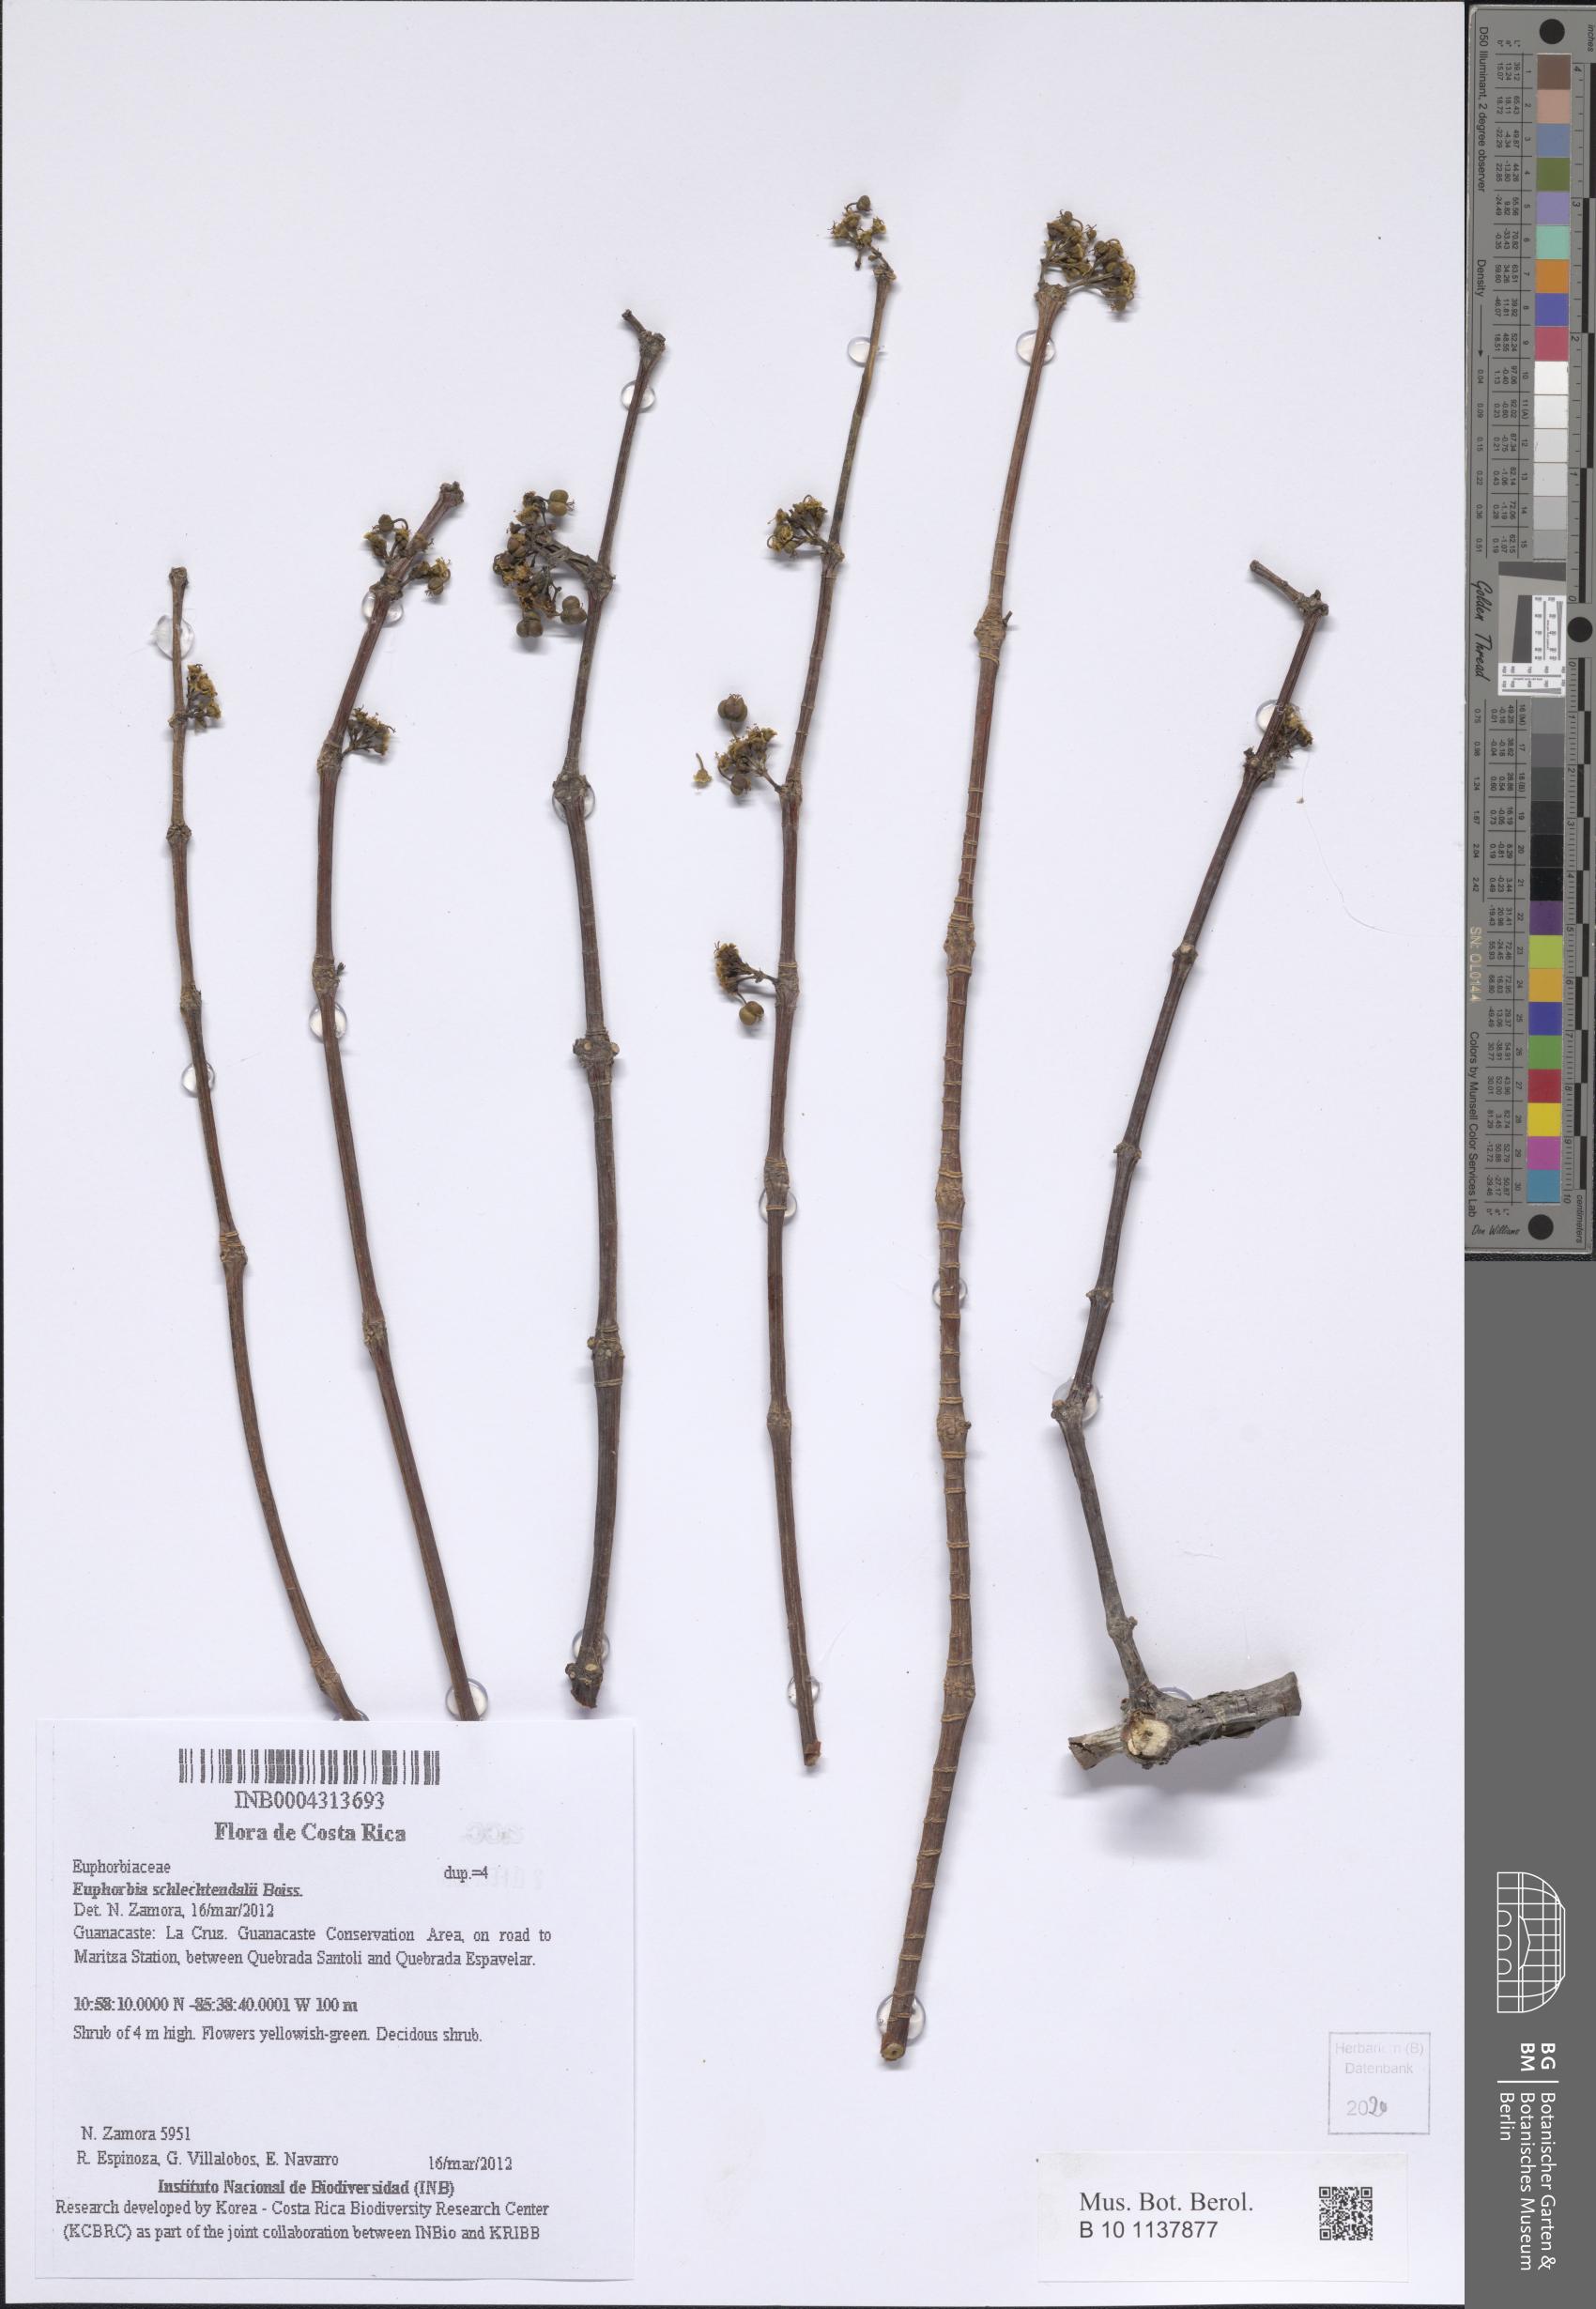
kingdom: Plantae
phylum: Tracheophyta
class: Magnoliopsida
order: Malpighiales
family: Euphorbiaceae
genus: Euphorbia
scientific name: Euphorbia schlechtendalii
